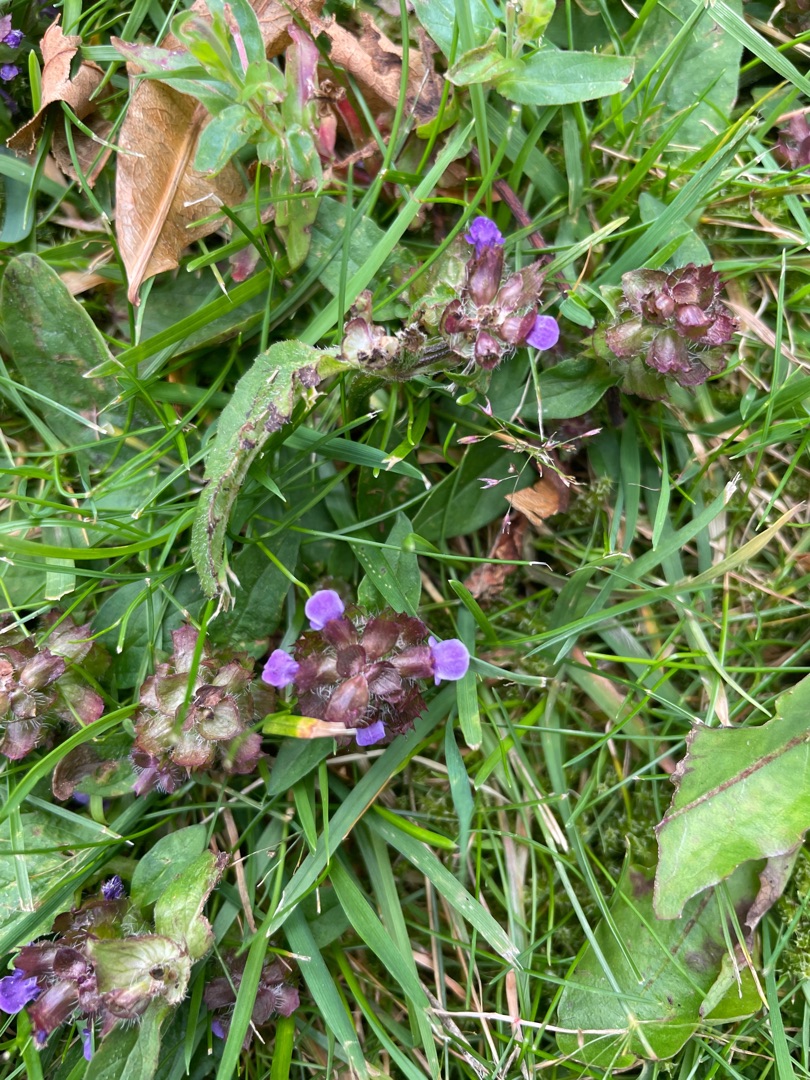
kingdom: Plantae
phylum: Tracheophyta
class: Magnoliopsida
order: Lamiales
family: Lamiaceae
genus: Prunella
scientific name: Prunella vulgaris
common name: Almindelig brunelle
